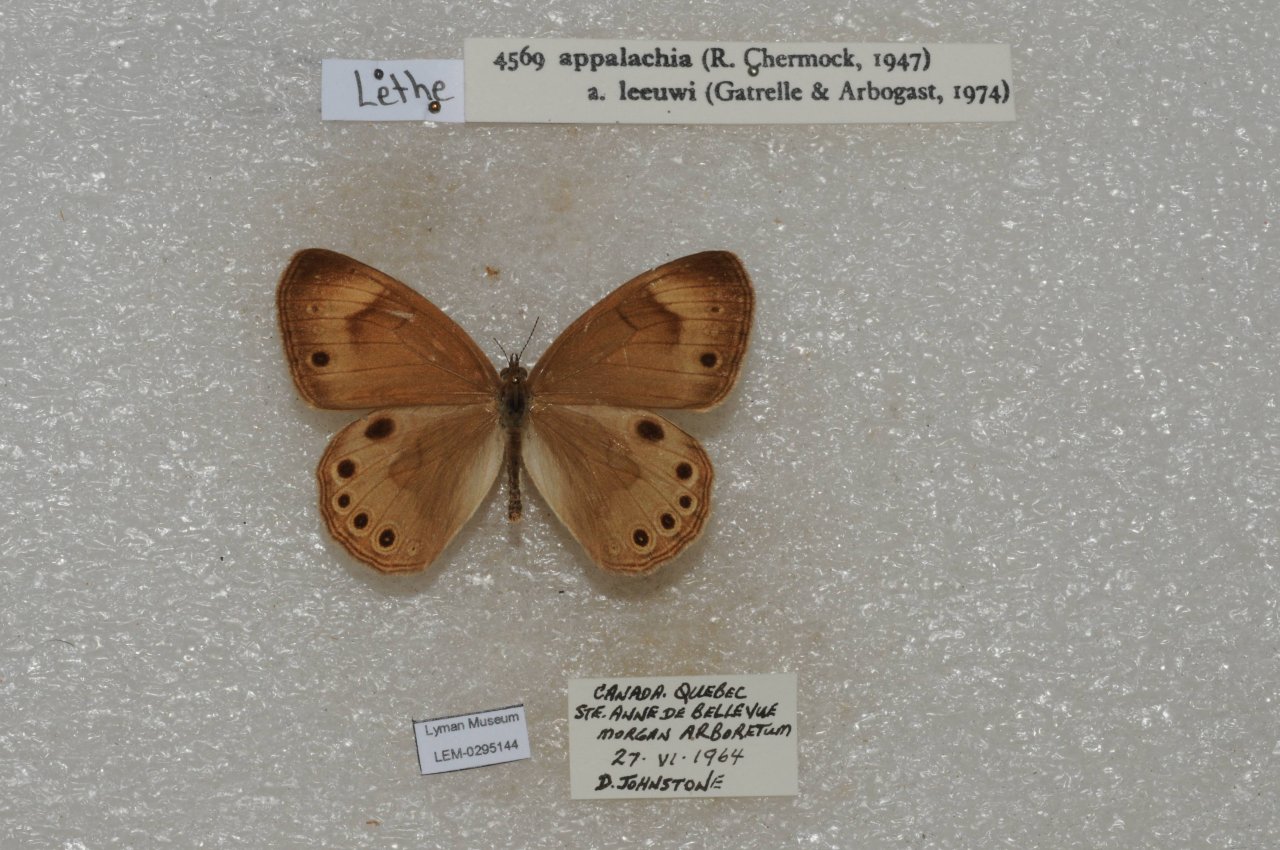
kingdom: Animalia
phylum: Arthropoda
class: Insecta
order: Lepidoptera
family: Nymphalidae
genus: Lethe
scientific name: Lethe eurydice
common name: Eyed Brown
